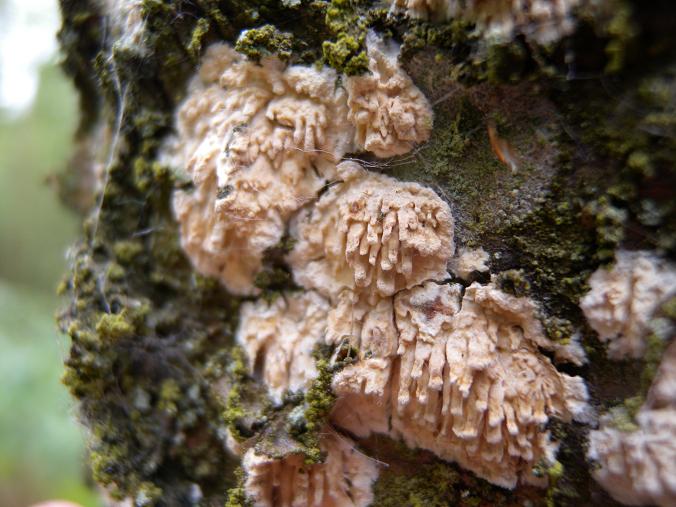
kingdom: Fungi
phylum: Basidiomycota
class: Agaricomycetes
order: Hymenochaetales
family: Schizoporaceae
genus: Xylodon
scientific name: Xylodon radula
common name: grovtandet kalkskind
